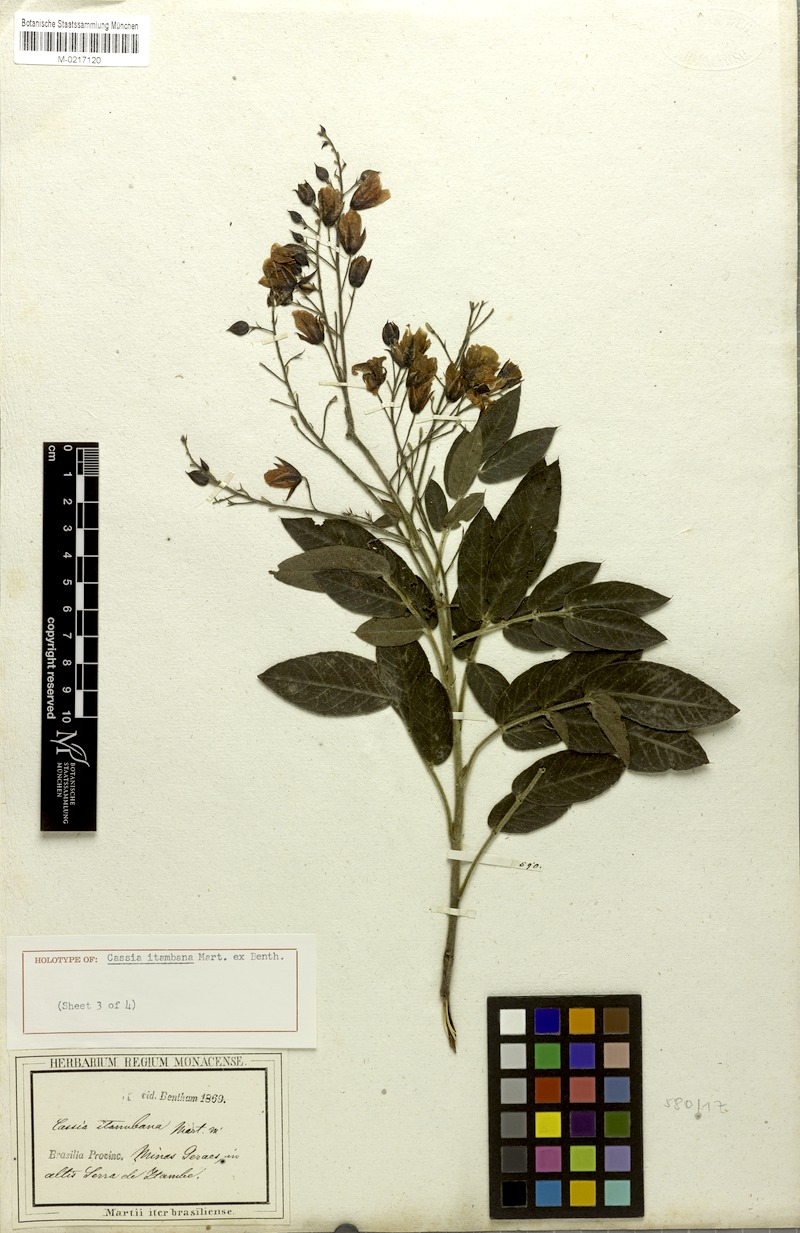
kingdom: Plantae
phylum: Tracheophyta
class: Magnoliopsida
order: Fabales
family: Fabaceae
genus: Chamaecrista
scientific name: Chamaecrista itambana
